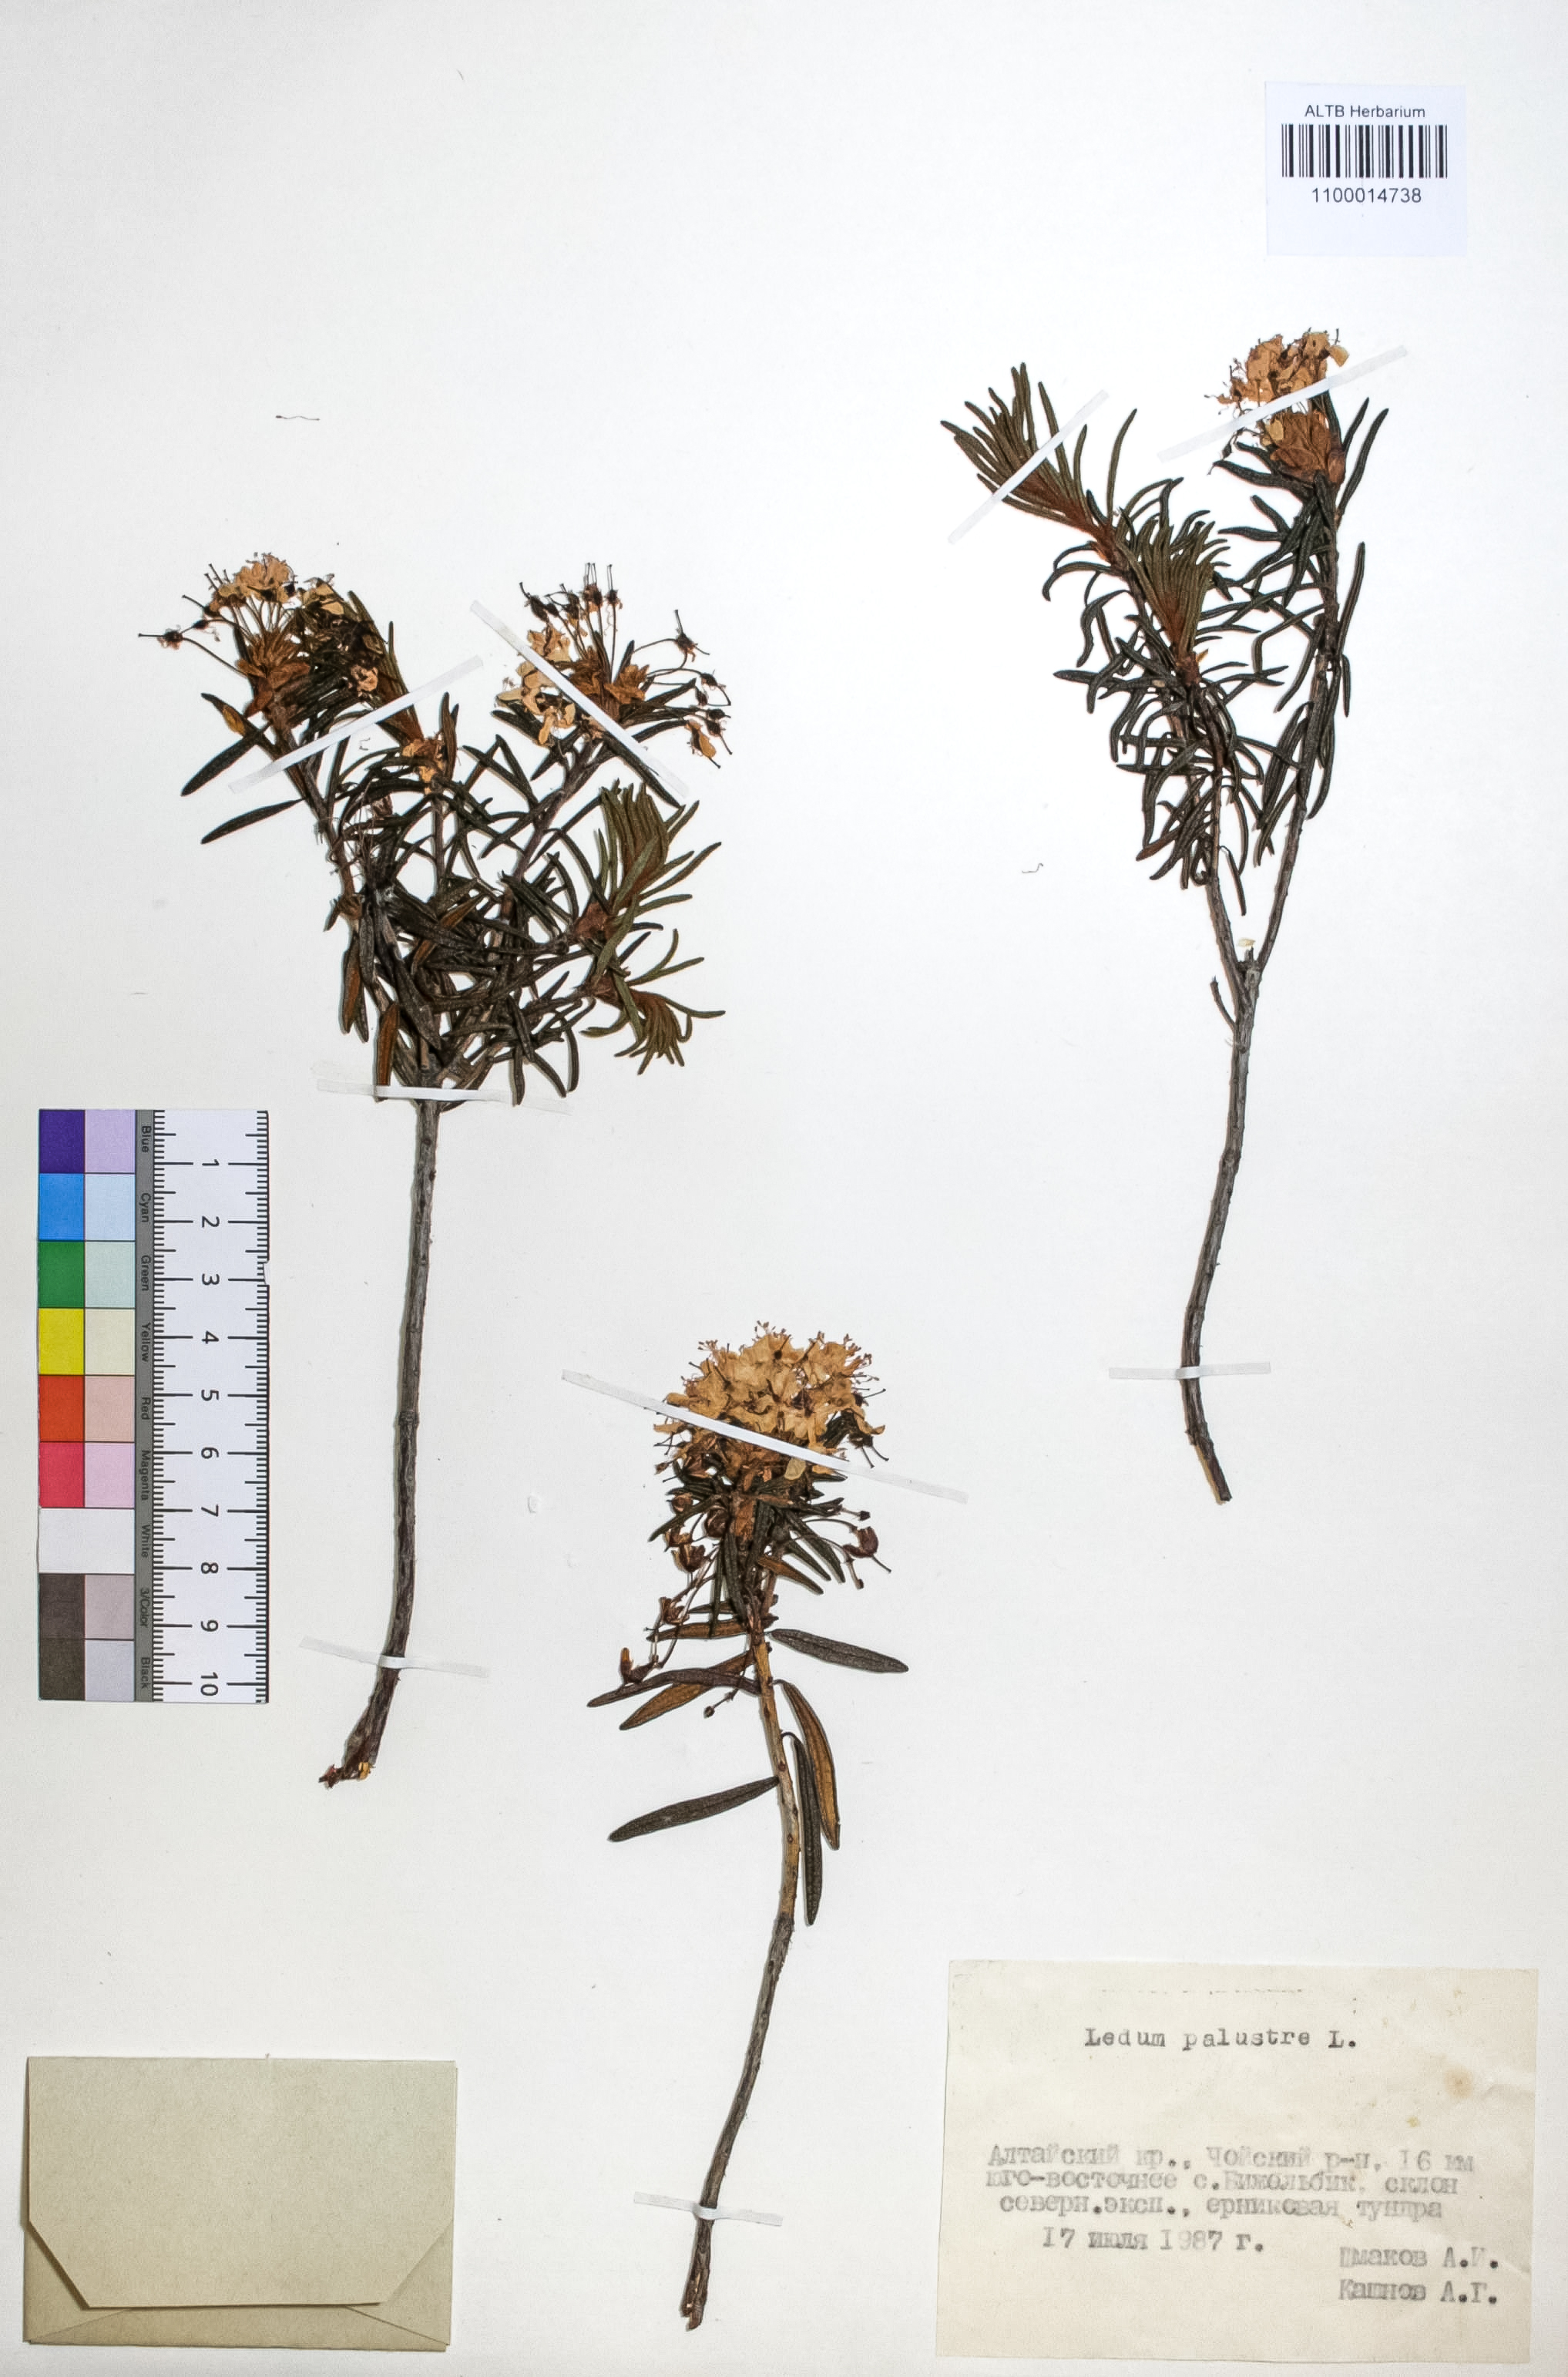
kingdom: Plantae
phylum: Tracheophyta
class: Magnoliopsida
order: Ericales
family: Ericaceae
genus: Rhododendron
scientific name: Rhododendron tomentosum
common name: Marsh labrador tea
